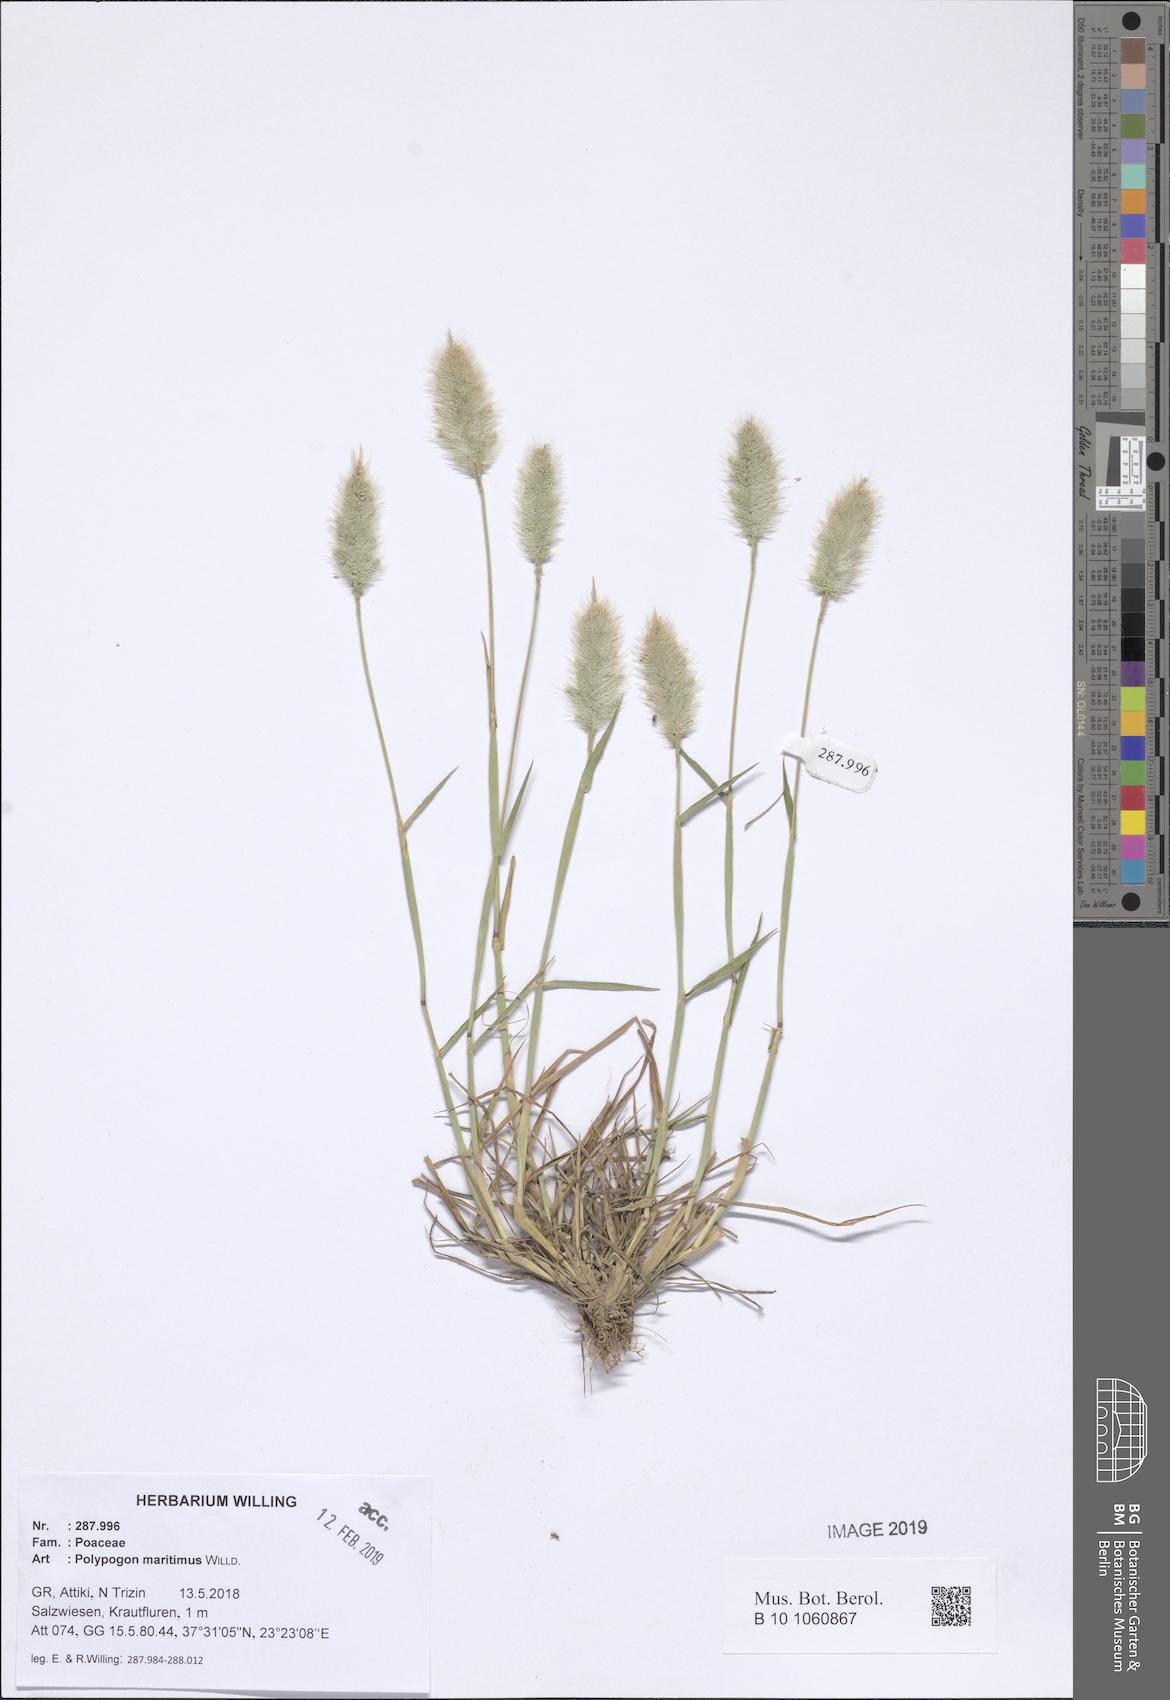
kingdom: Plantae
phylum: Tracheophyta
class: Liliopsida
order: Poales
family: Poaceae
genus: Polypogon
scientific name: Polypogon maritimus
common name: Mediterranean rabbitsfoot grass
